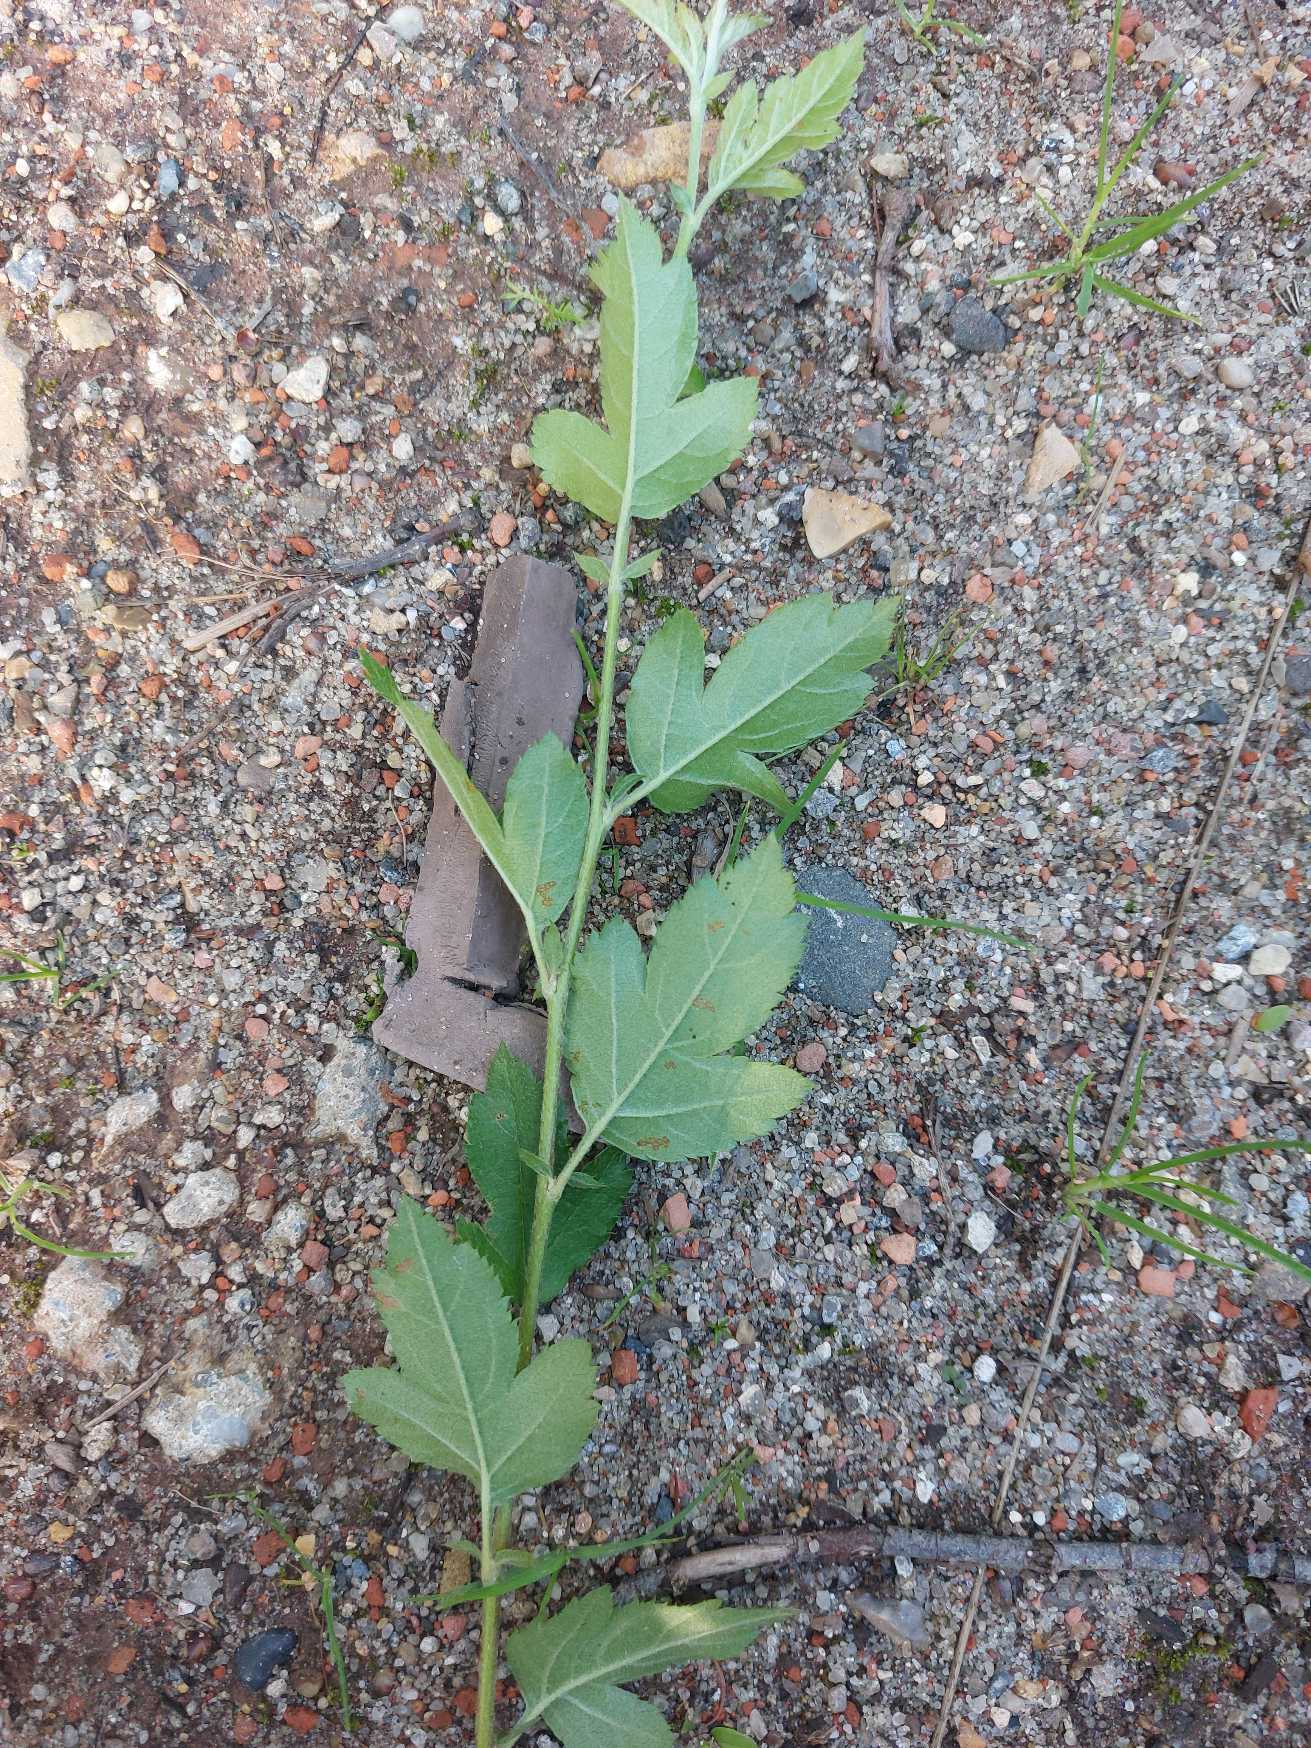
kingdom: Plantae
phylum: Tracheophyta
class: Magnoliopsida
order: Rosales
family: Rosaceae
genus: Malus
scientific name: Malus toringo
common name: Sargents-æble
